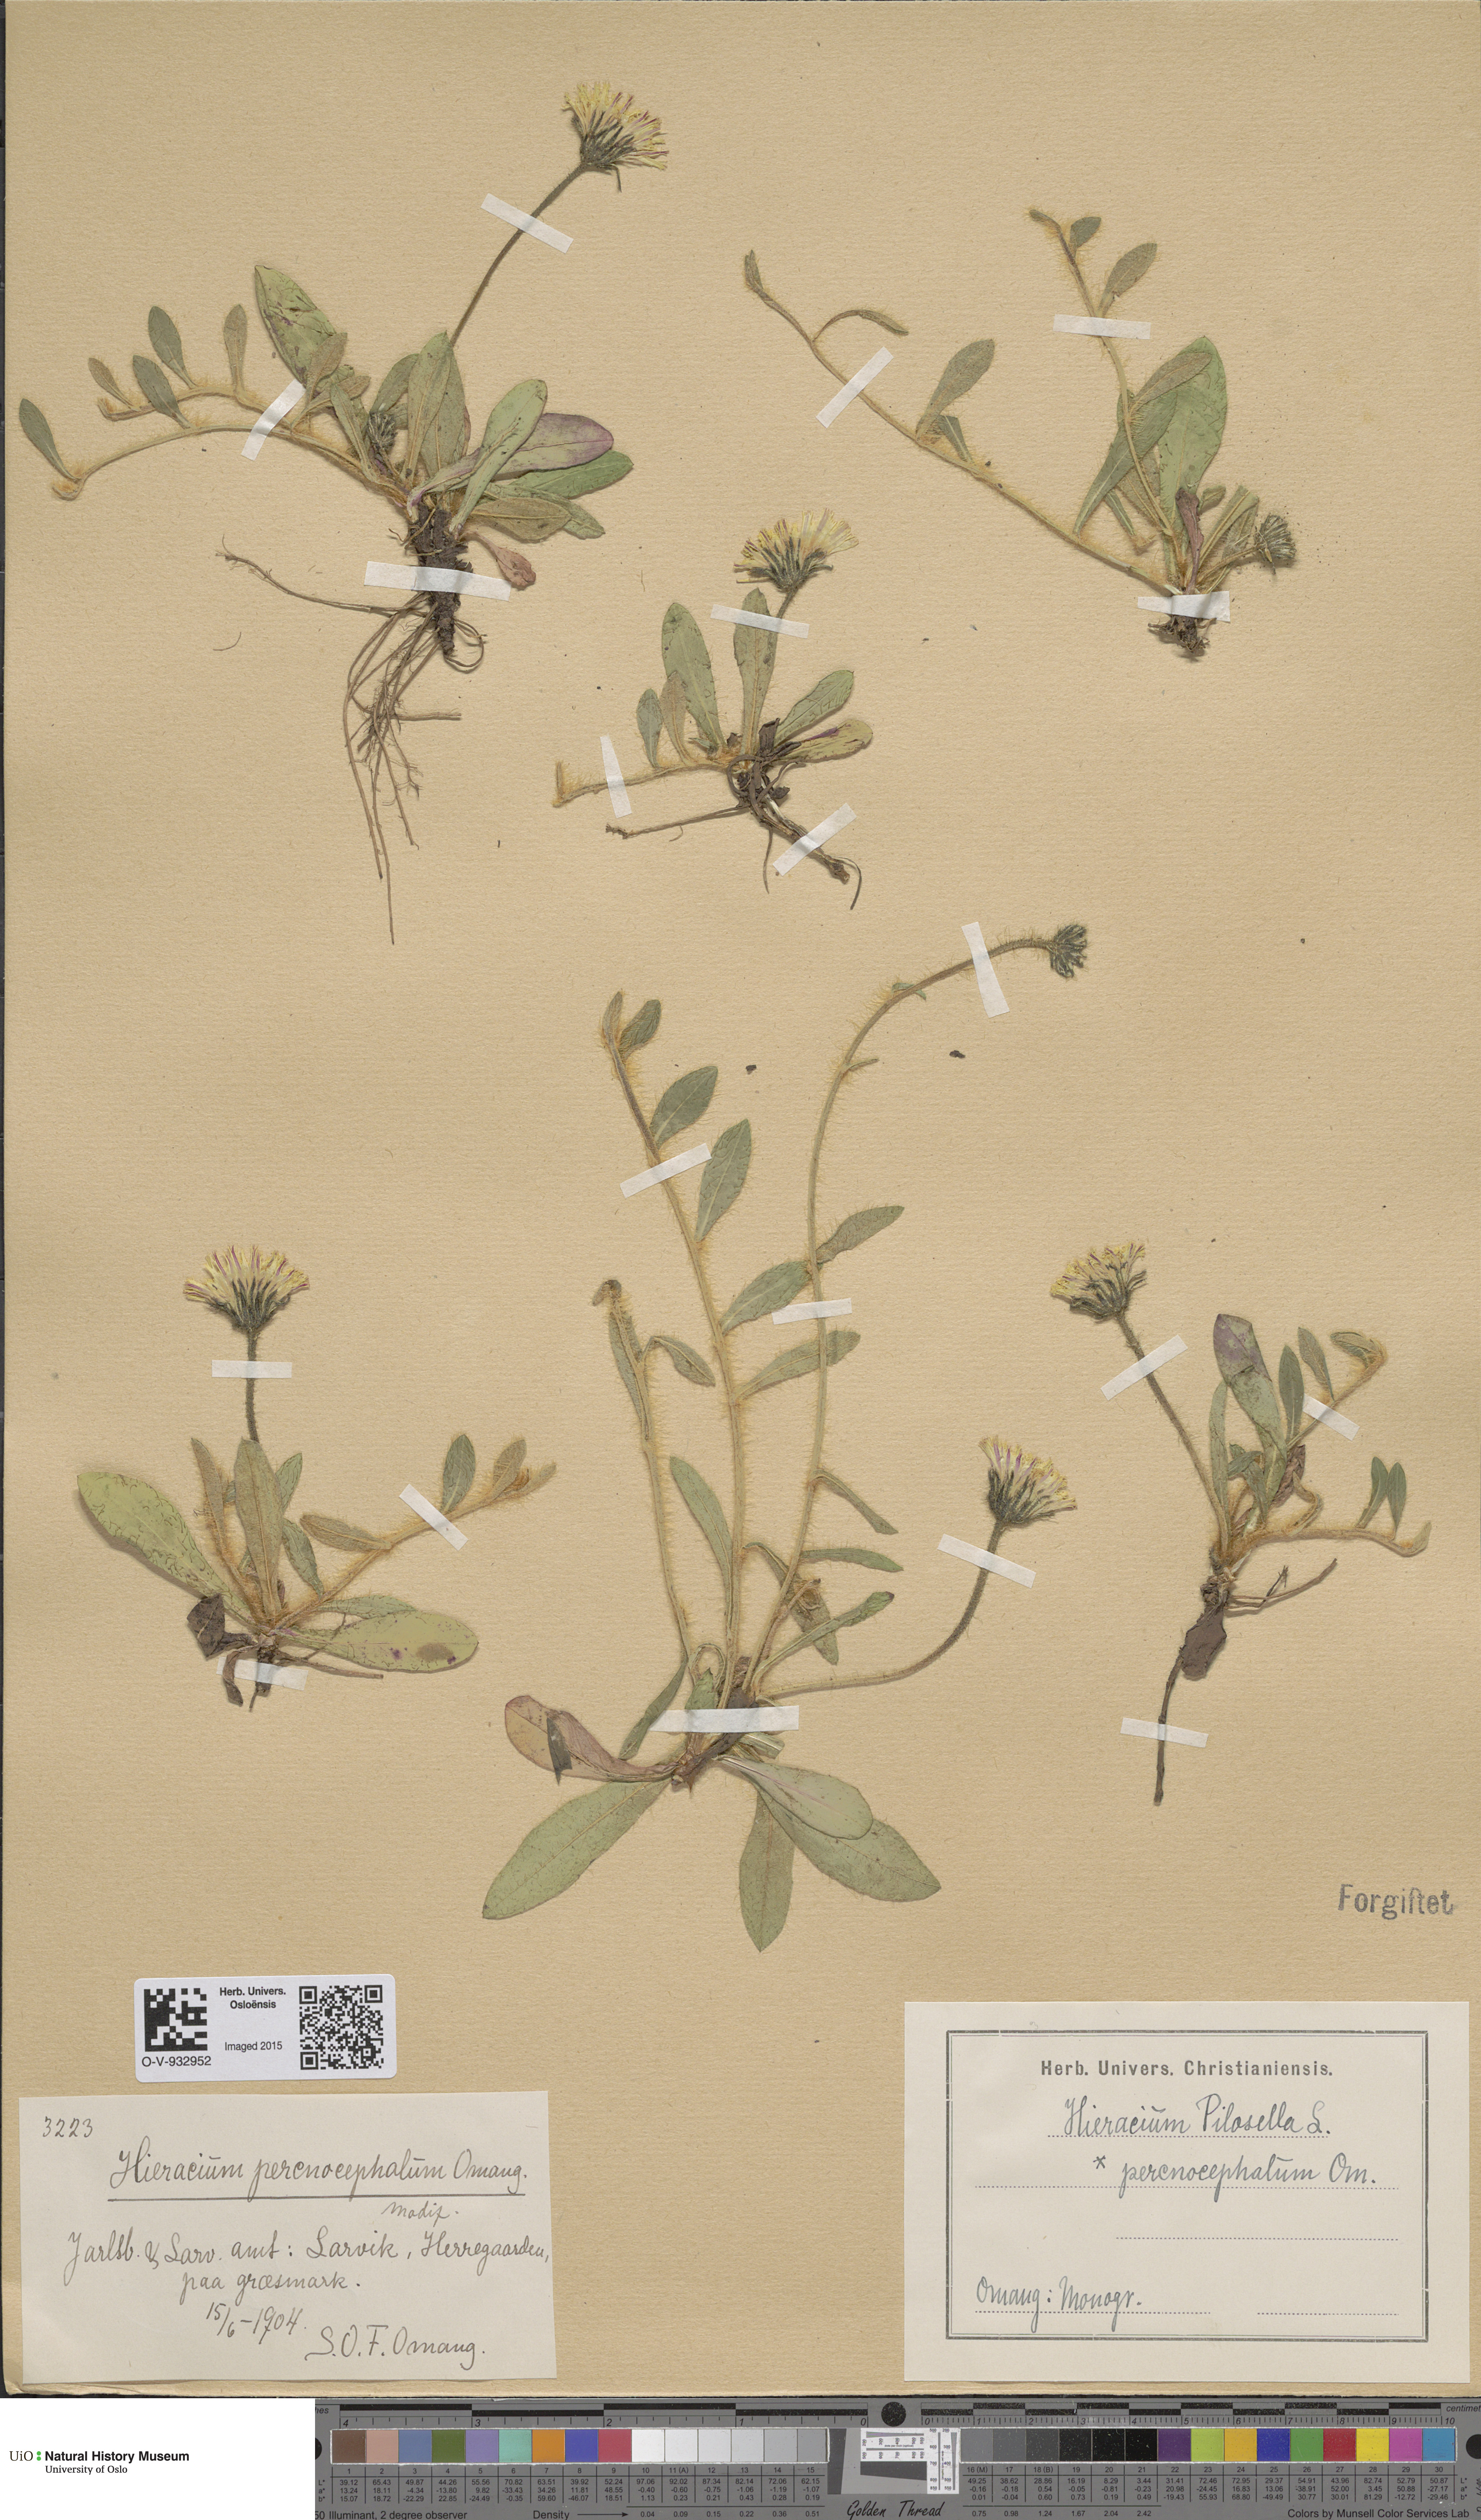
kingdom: Plantae
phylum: Tracheophyta
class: Magnoliopsida
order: Asterales
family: Asteraceae
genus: Pilosella
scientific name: Pilosella officinarum
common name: Mouse-ear hawkweed
